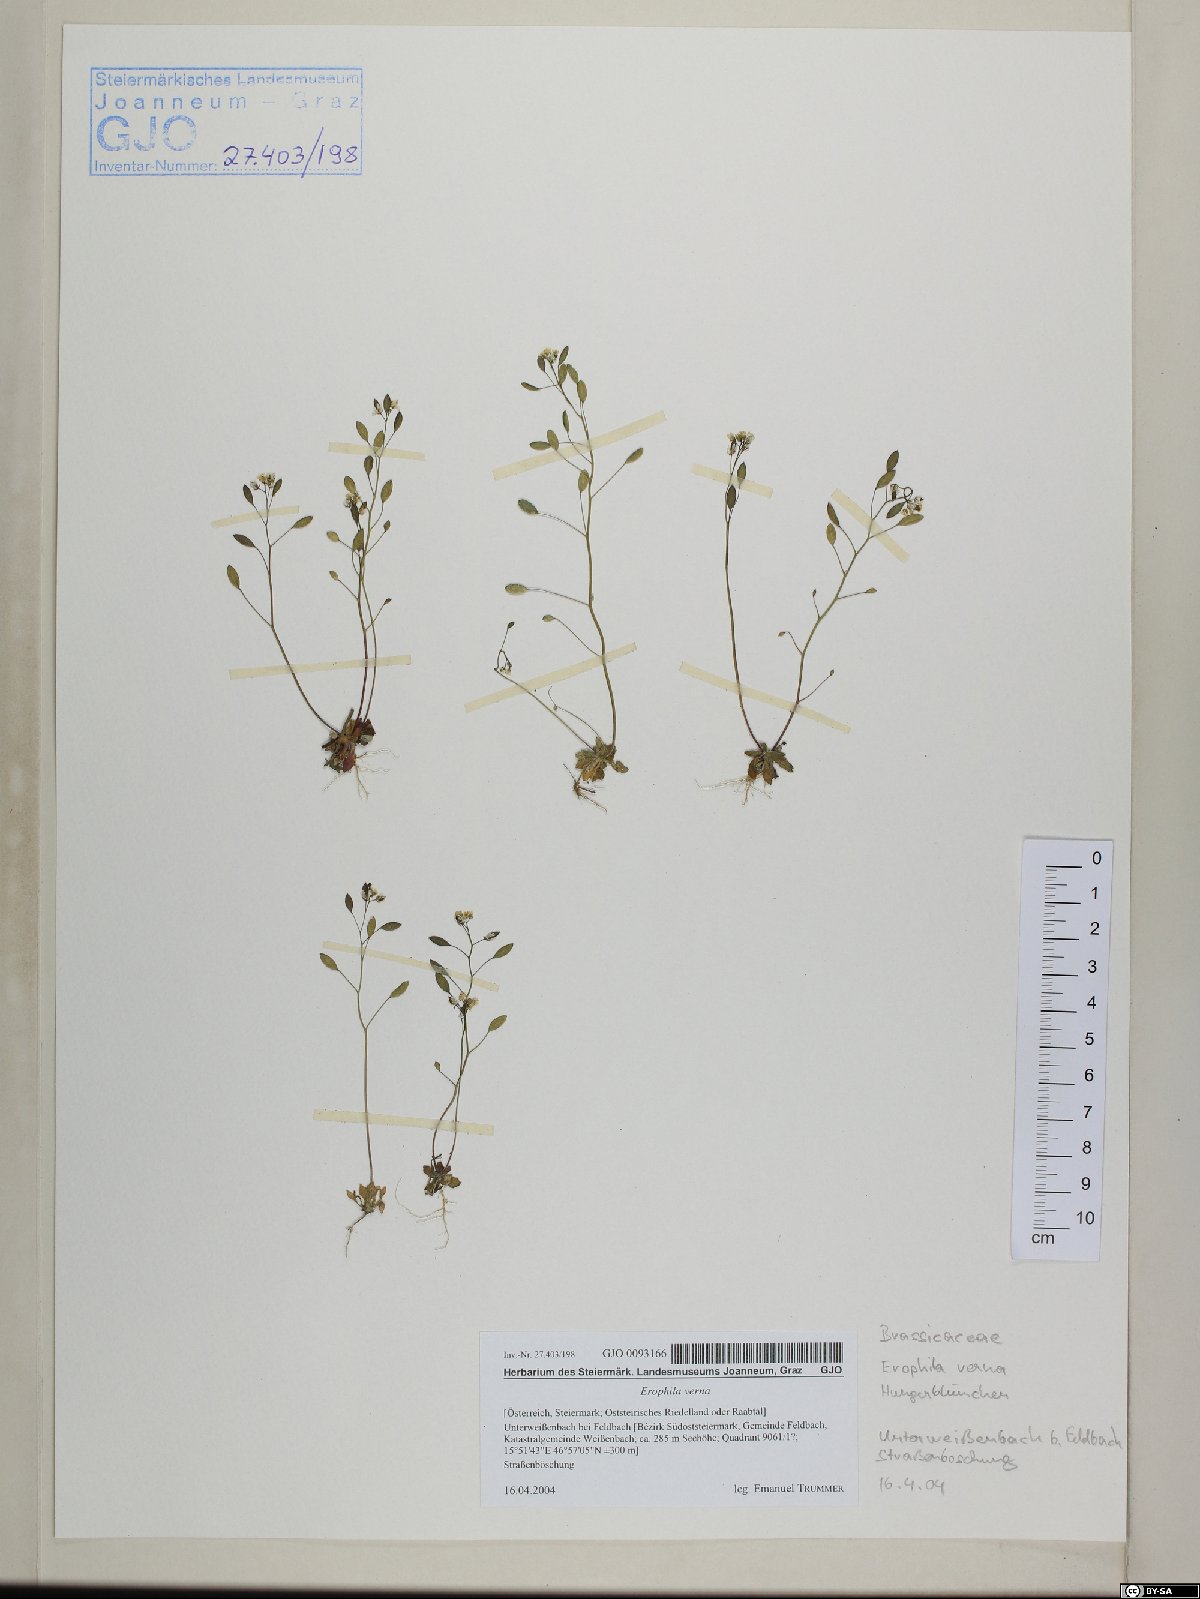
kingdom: Plantae
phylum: Tracheophyta
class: Magnoliopsida
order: Brassicales
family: Brassicaceae
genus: Draba
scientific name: Draba verna
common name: Spring draba
